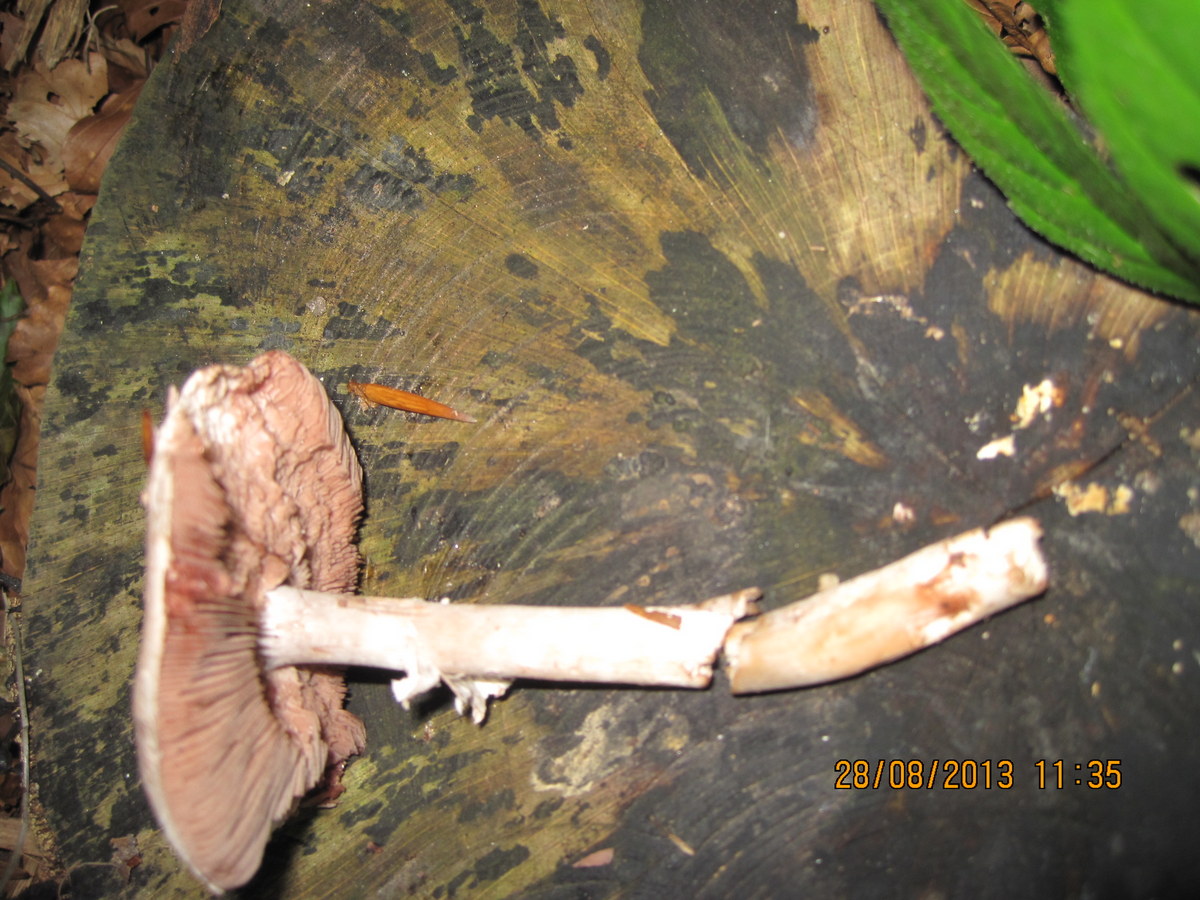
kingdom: Fungi
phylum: Basidiomycota
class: Agaricomycetes
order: Agaricales
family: Agaricaceae
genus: Agaricus
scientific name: Agaricus langei
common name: stor blod-champignon
